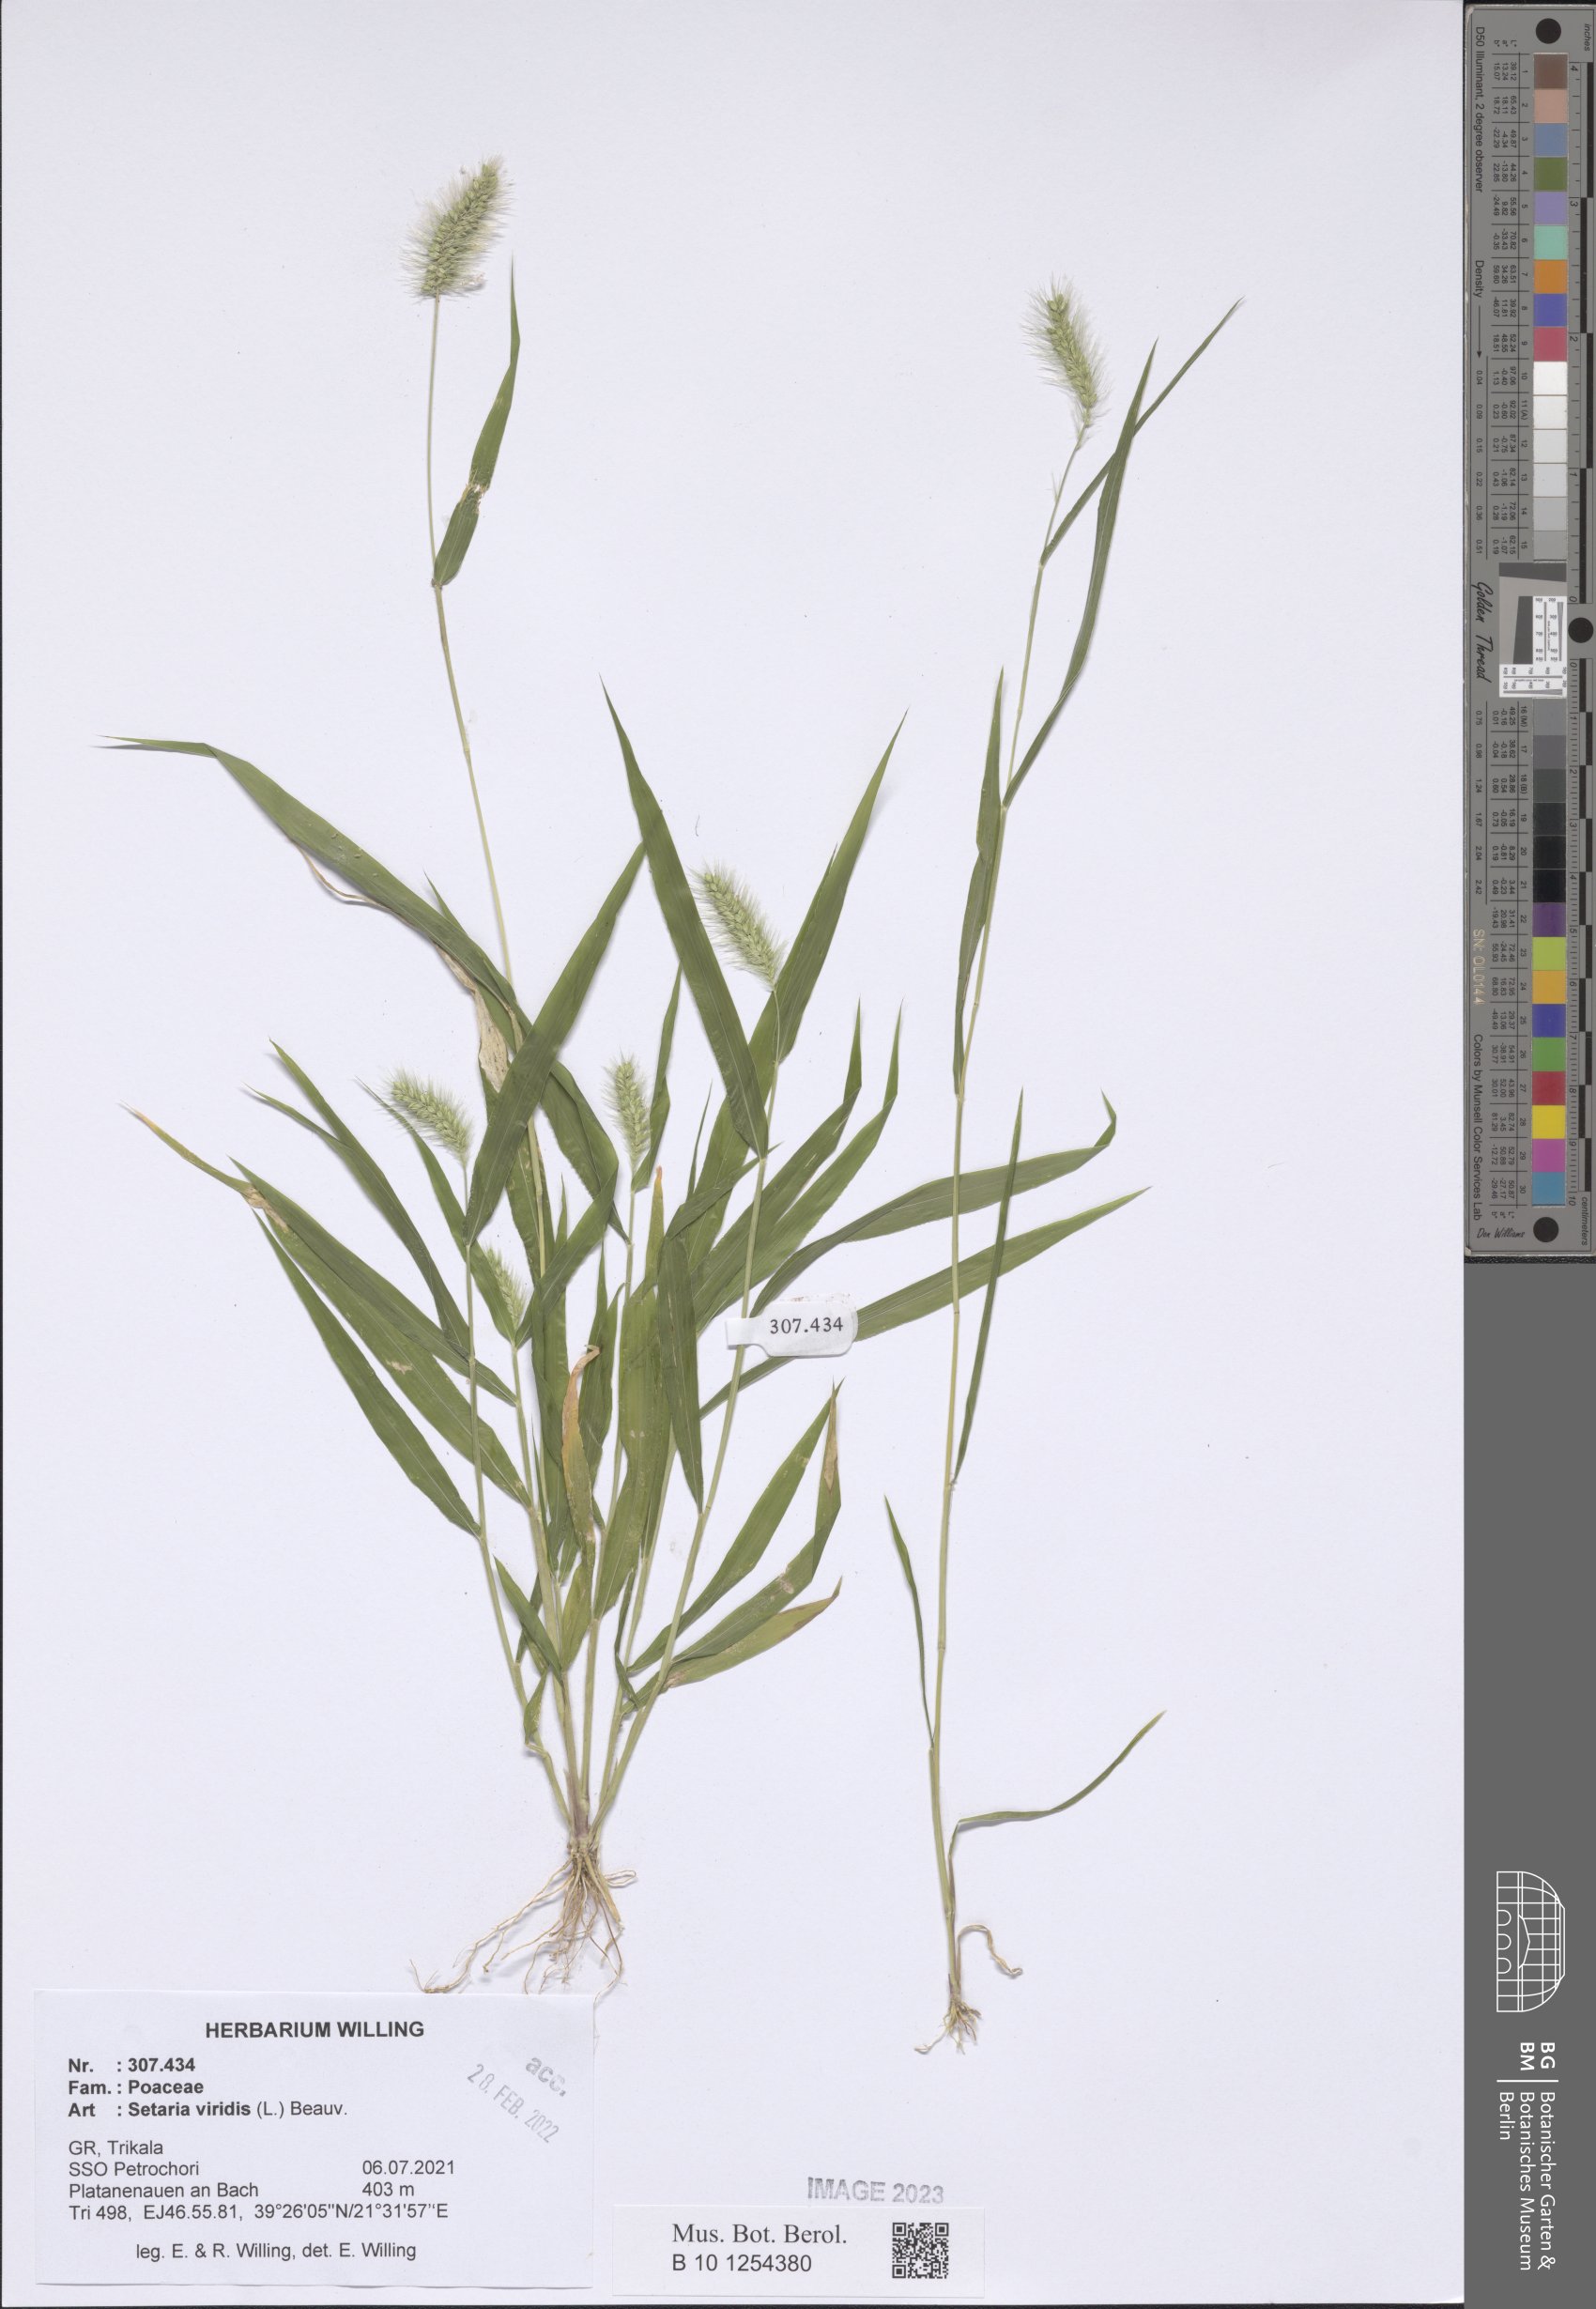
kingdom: Plantae
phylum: Tracheophyta
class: Liliopsida
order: Poales
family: Poaceae
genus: Setaria
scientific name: Setaria viridis
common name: Green bristlegrass
